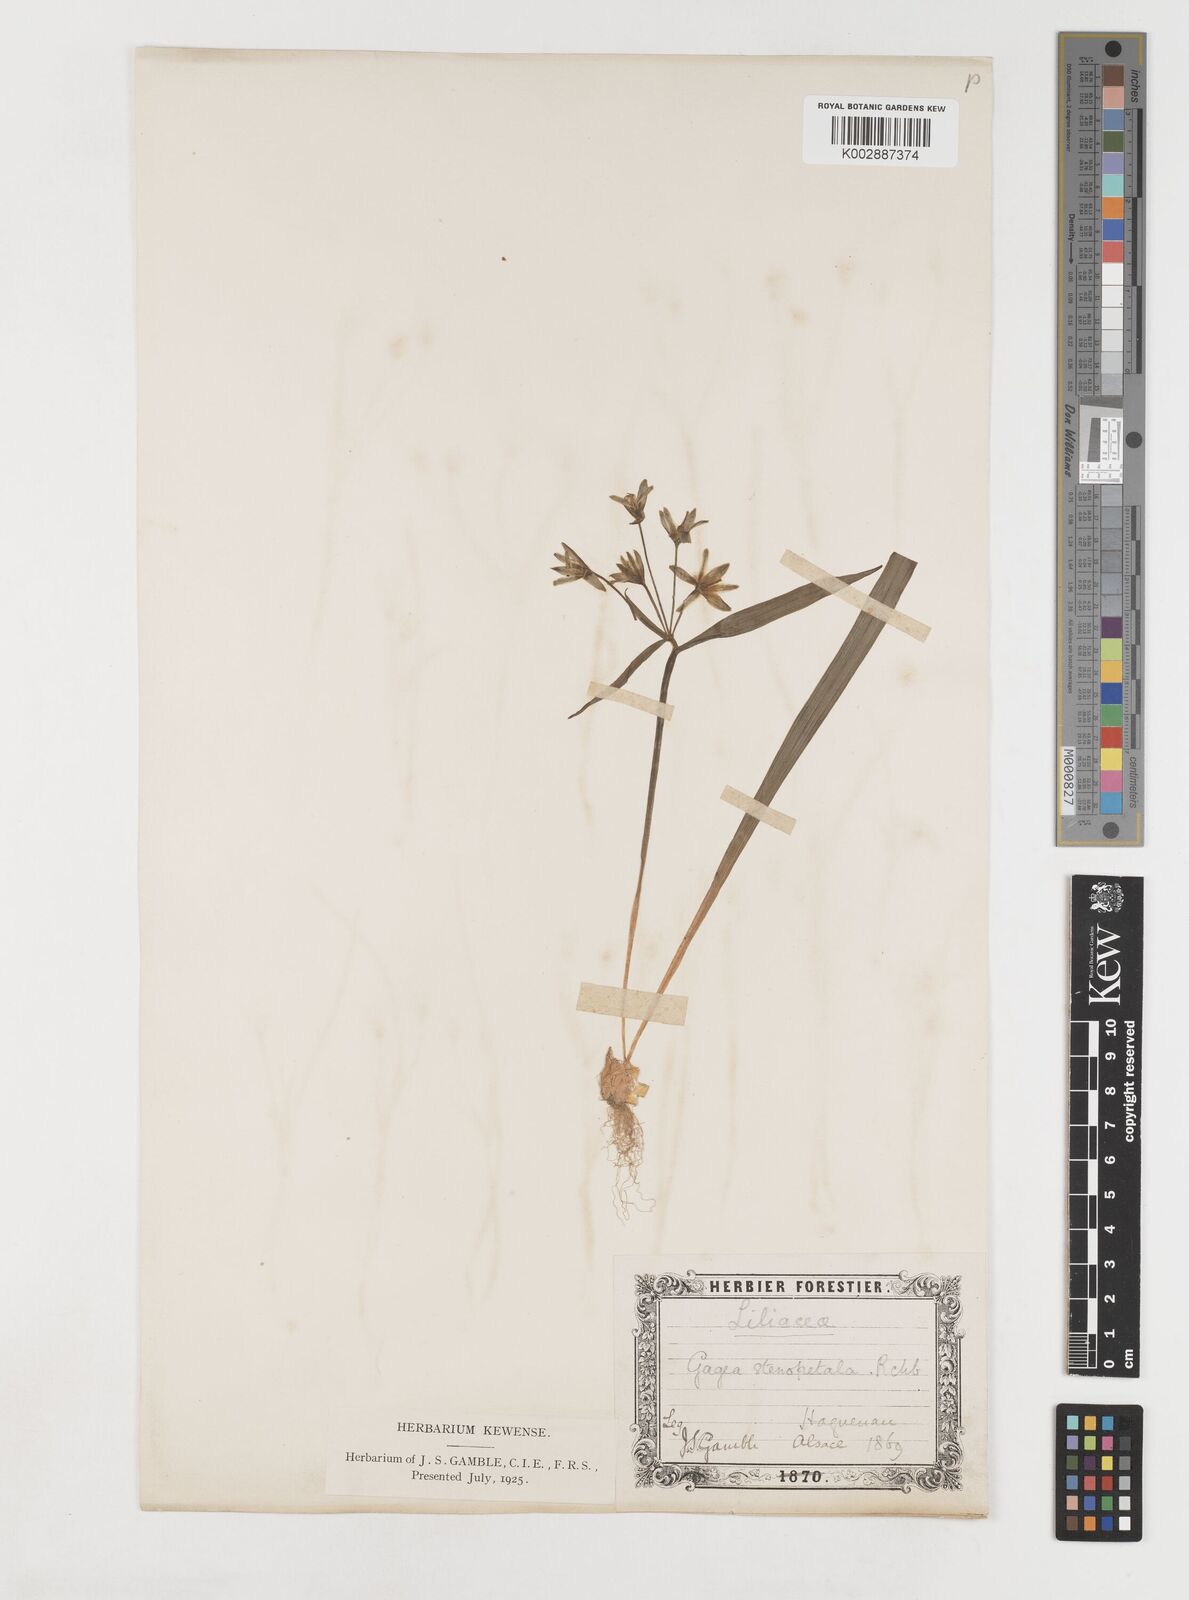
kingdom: Plantae
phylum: Tracheophyta
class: Liliopsida
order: Liliales
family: Liliaceae
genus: Gagea
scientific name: Gagea pratensis
